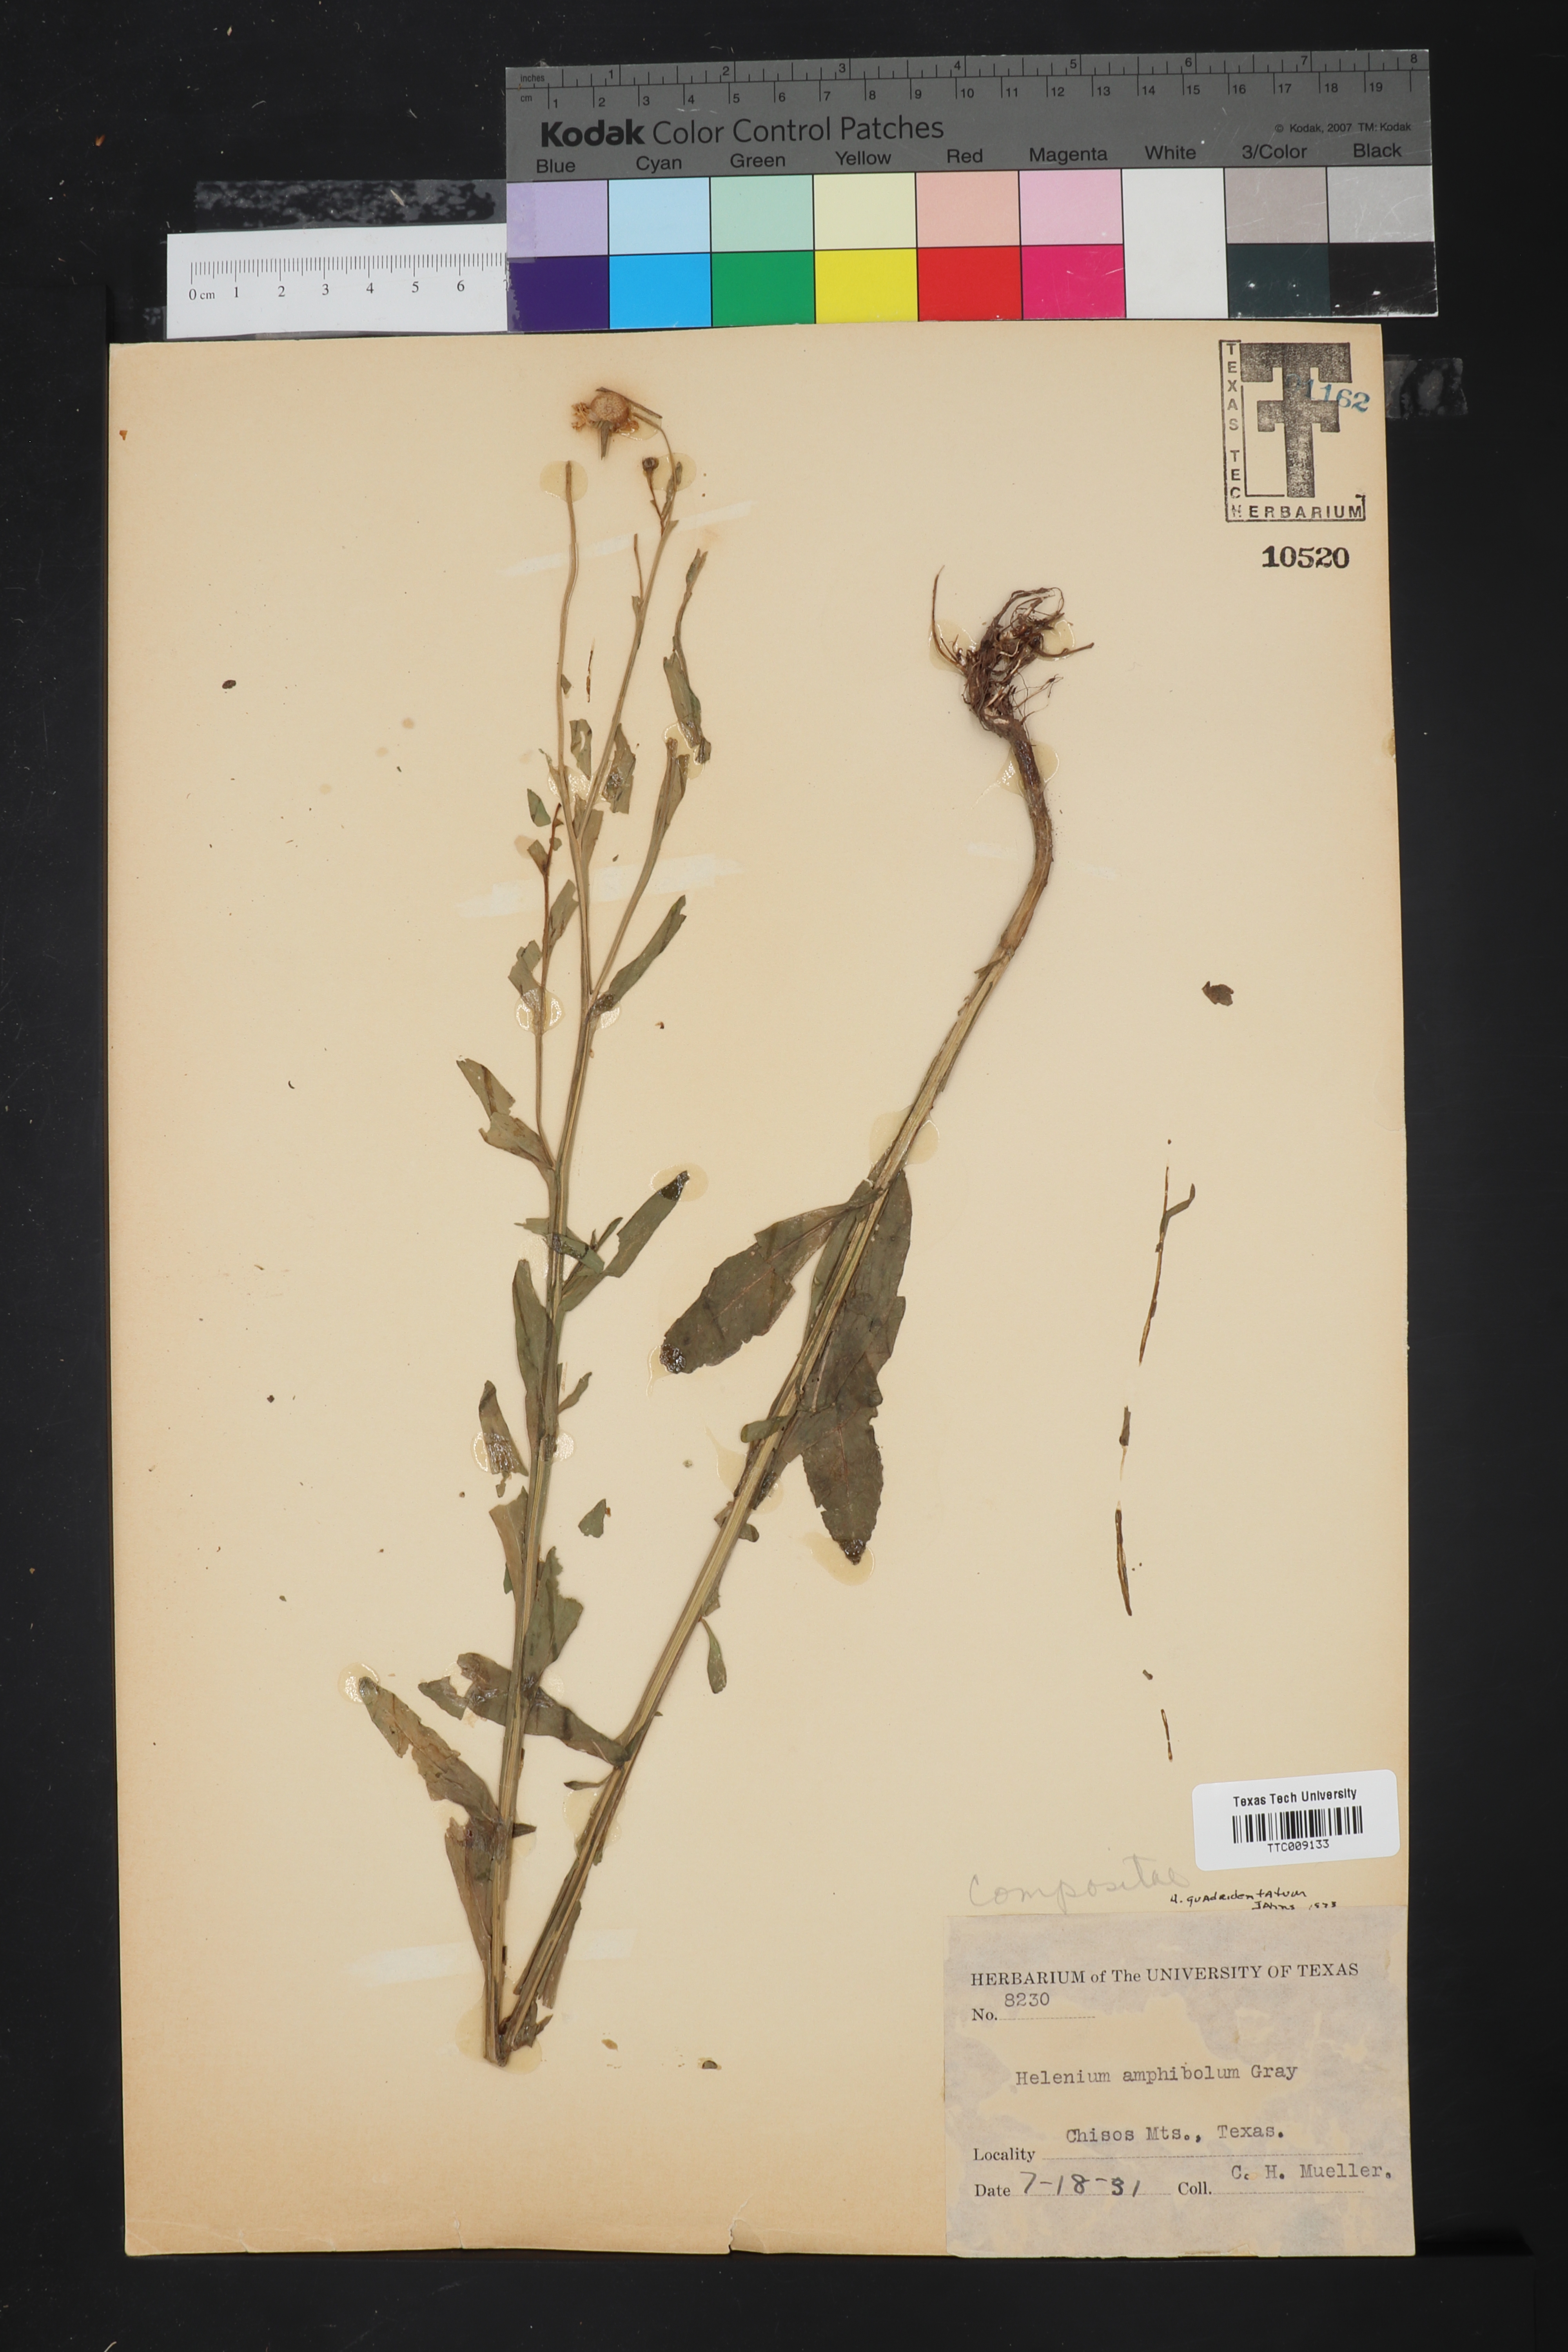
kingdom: Plantae
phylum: Tracheophyta
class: Magnoliopsida
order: Asterales
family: Asteraceae
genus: Helenium
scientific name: Helenium quadridentatum
